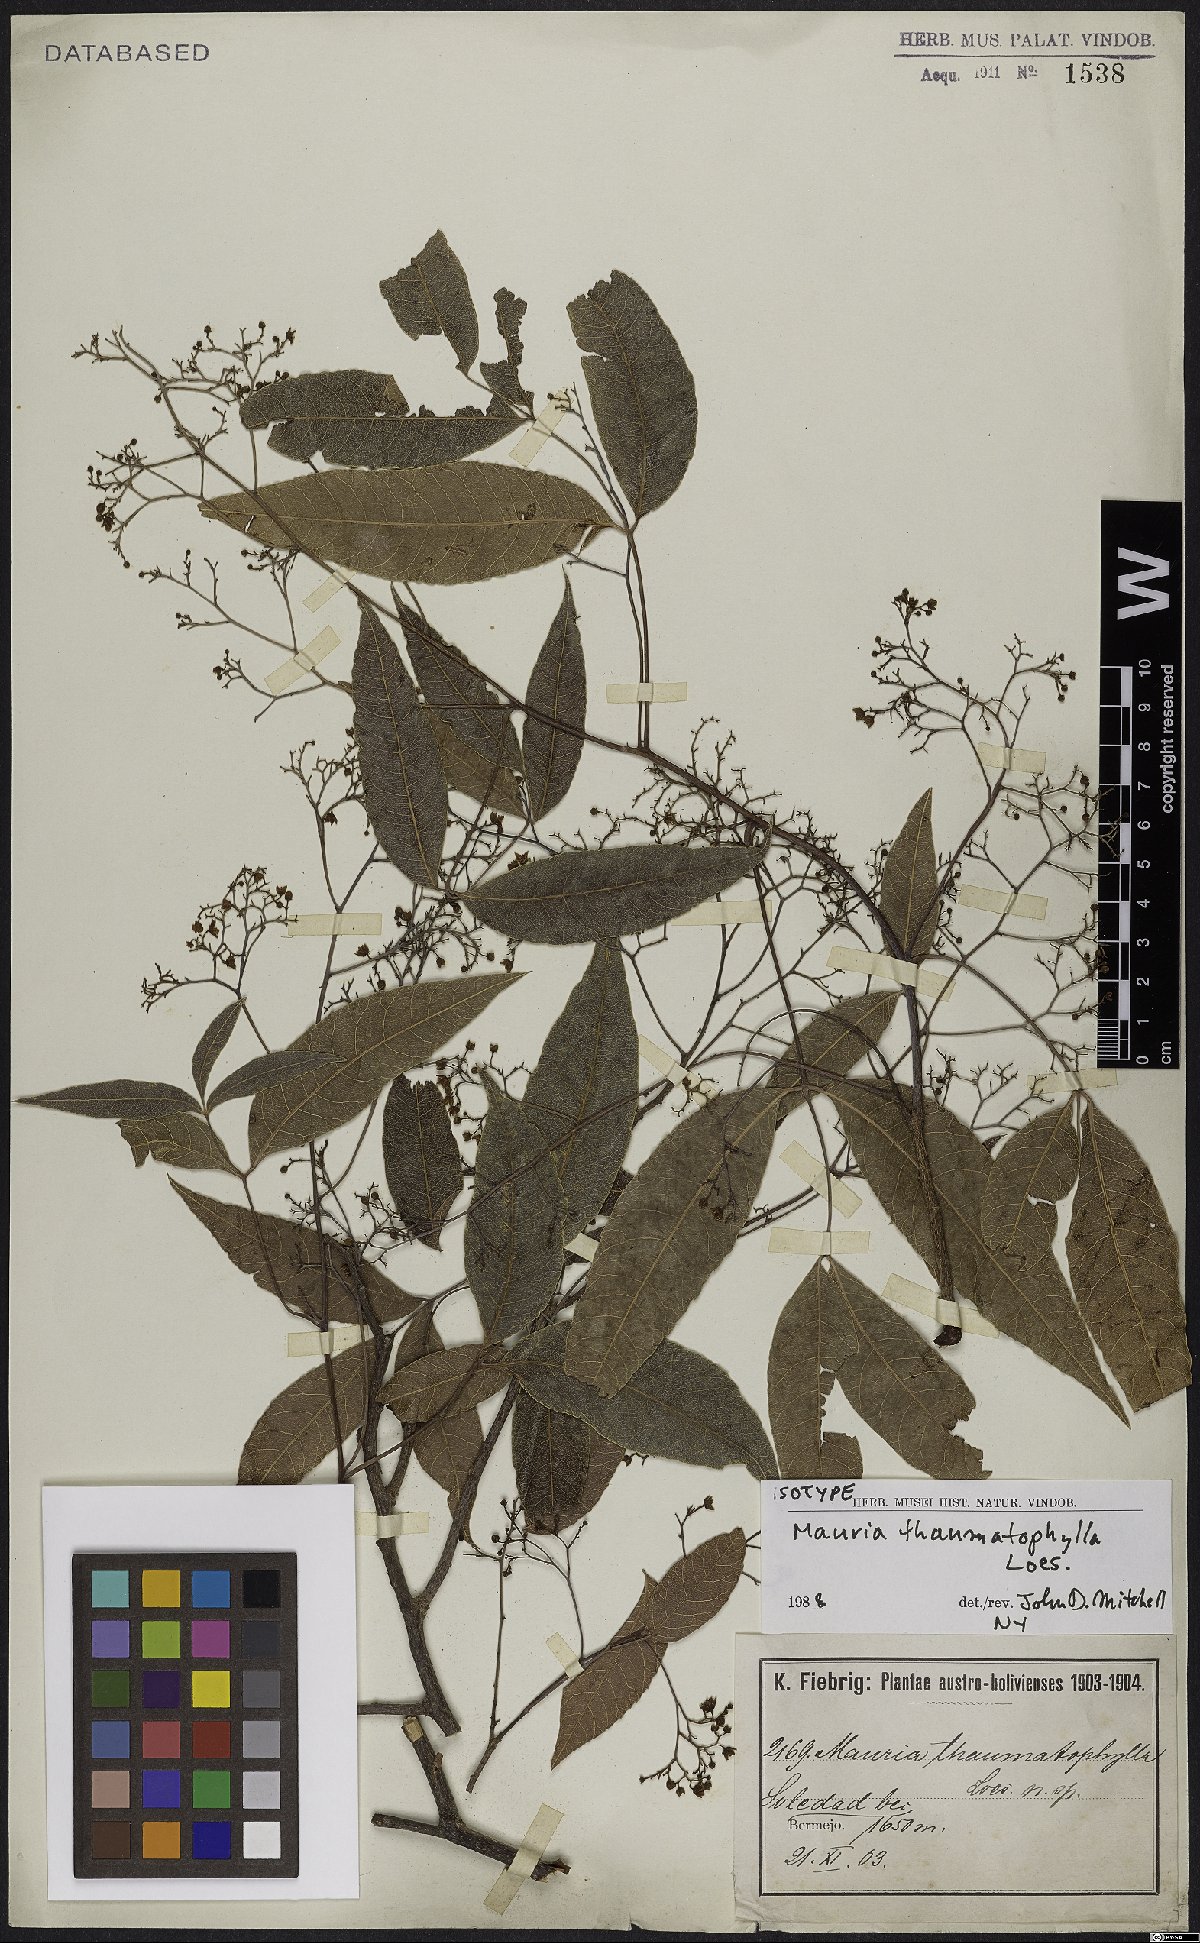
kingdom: Plantae
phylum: Tracheophyta
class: Magnoliopsida
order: Sapindales
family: Anacardiaceae
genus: Mauria
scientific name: Mauria thaumatophylla
